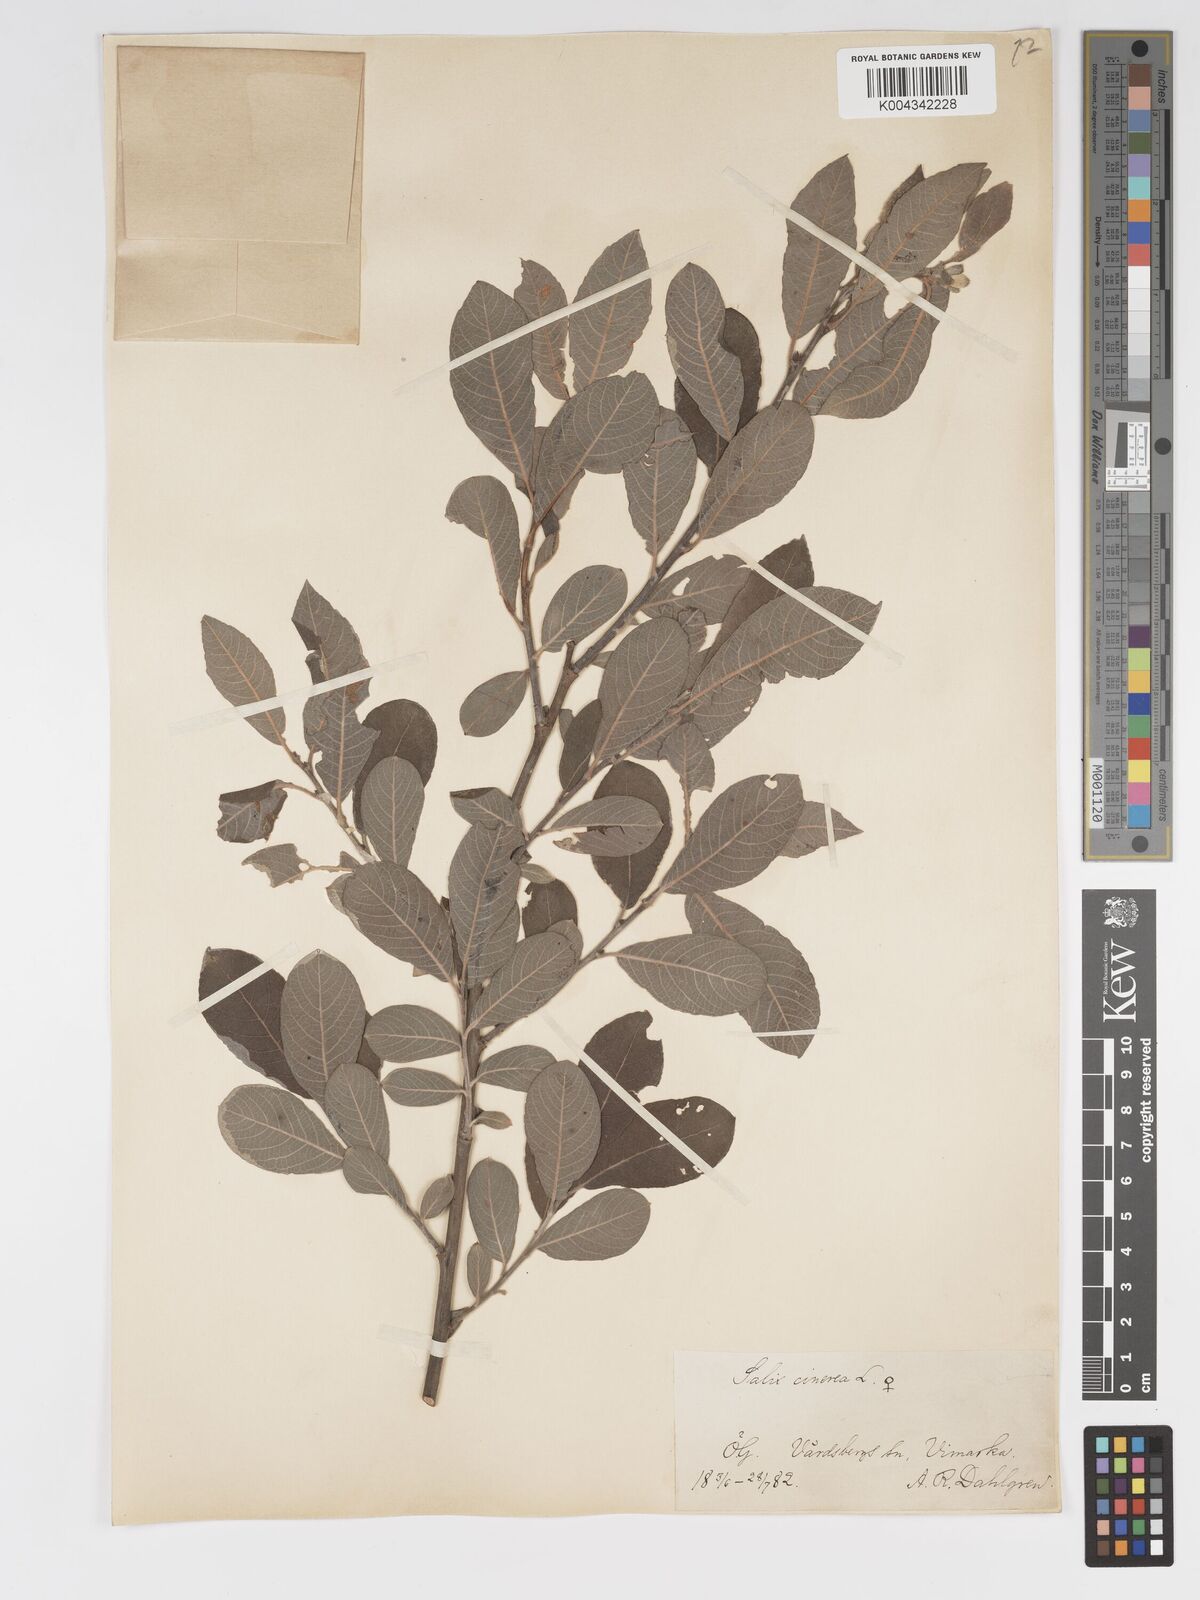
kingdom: Plantae
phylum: Tracheophyta
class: Magnoliopsida
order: Malpighiales
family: Salicaceae
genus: Salix
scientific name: Salix
